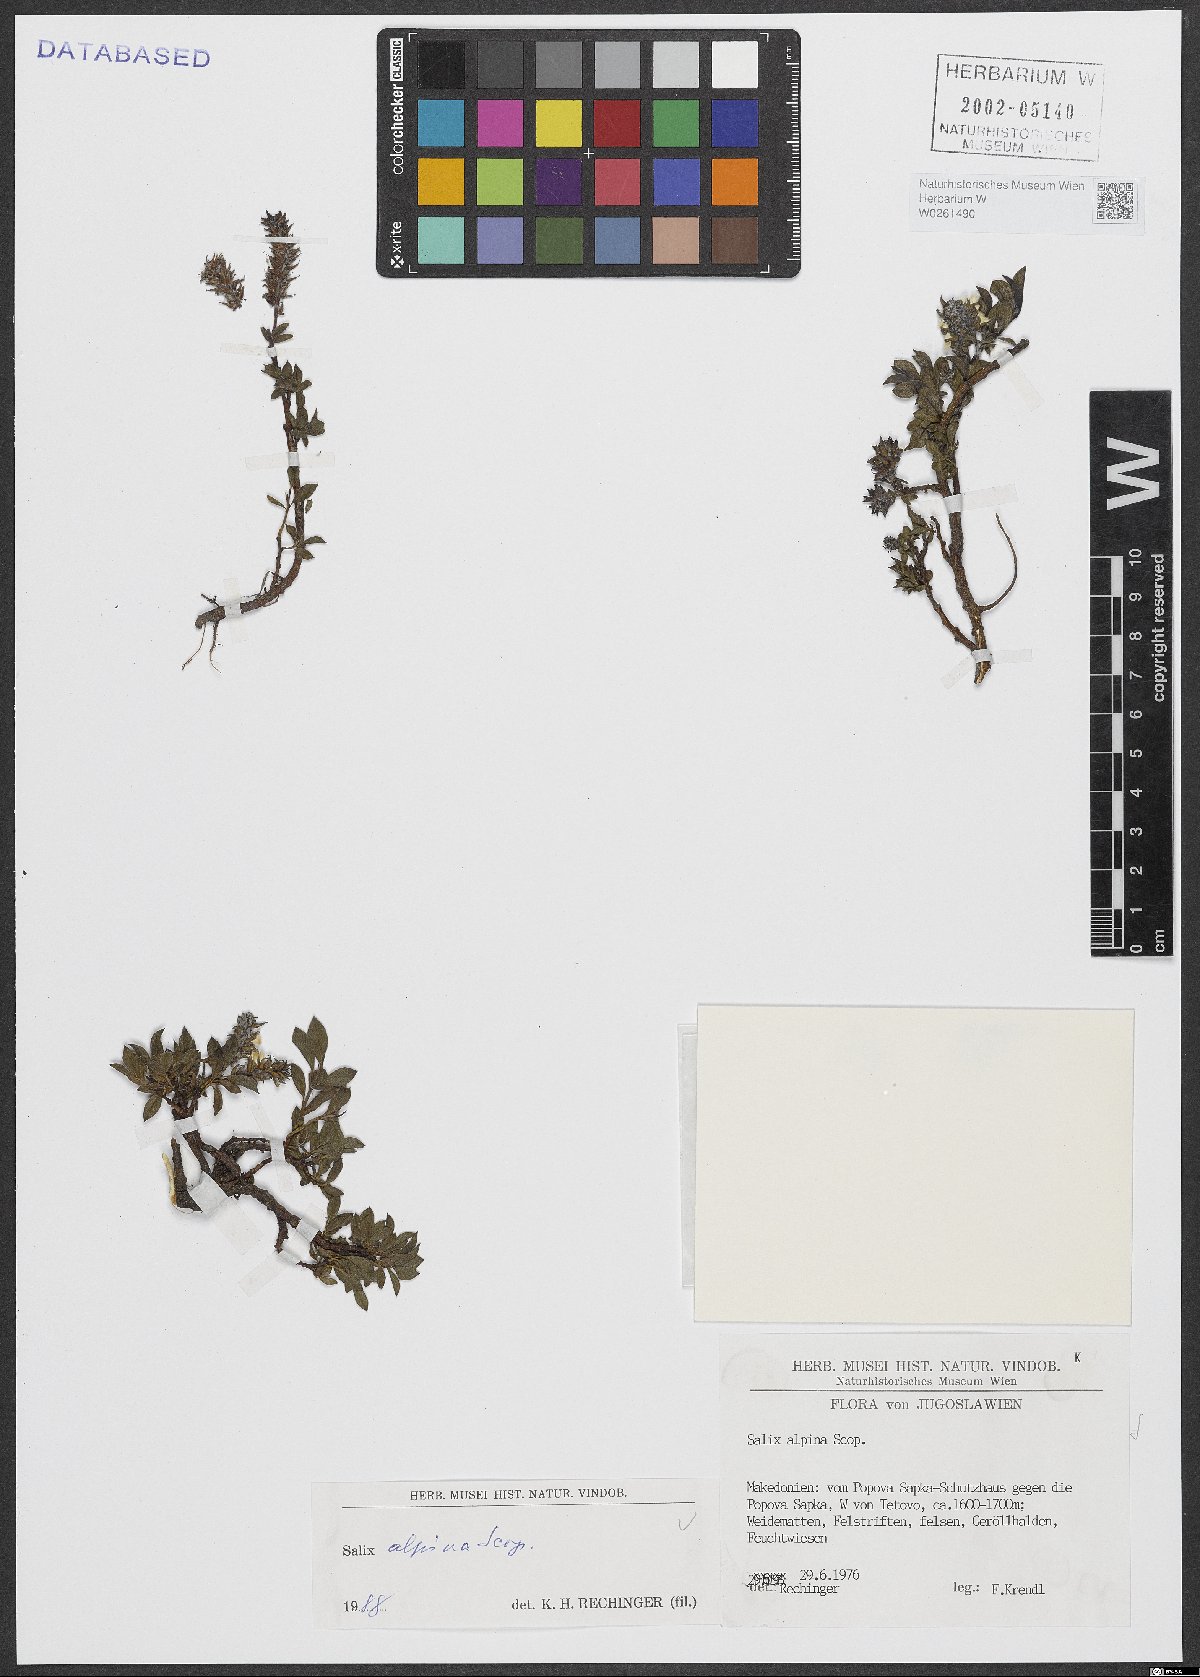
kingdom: Plantae
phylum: Tracheophyta
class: Magnoliopsida
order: Malpighiales
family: Salicaceae
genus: Salix
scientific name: Salix alpina
